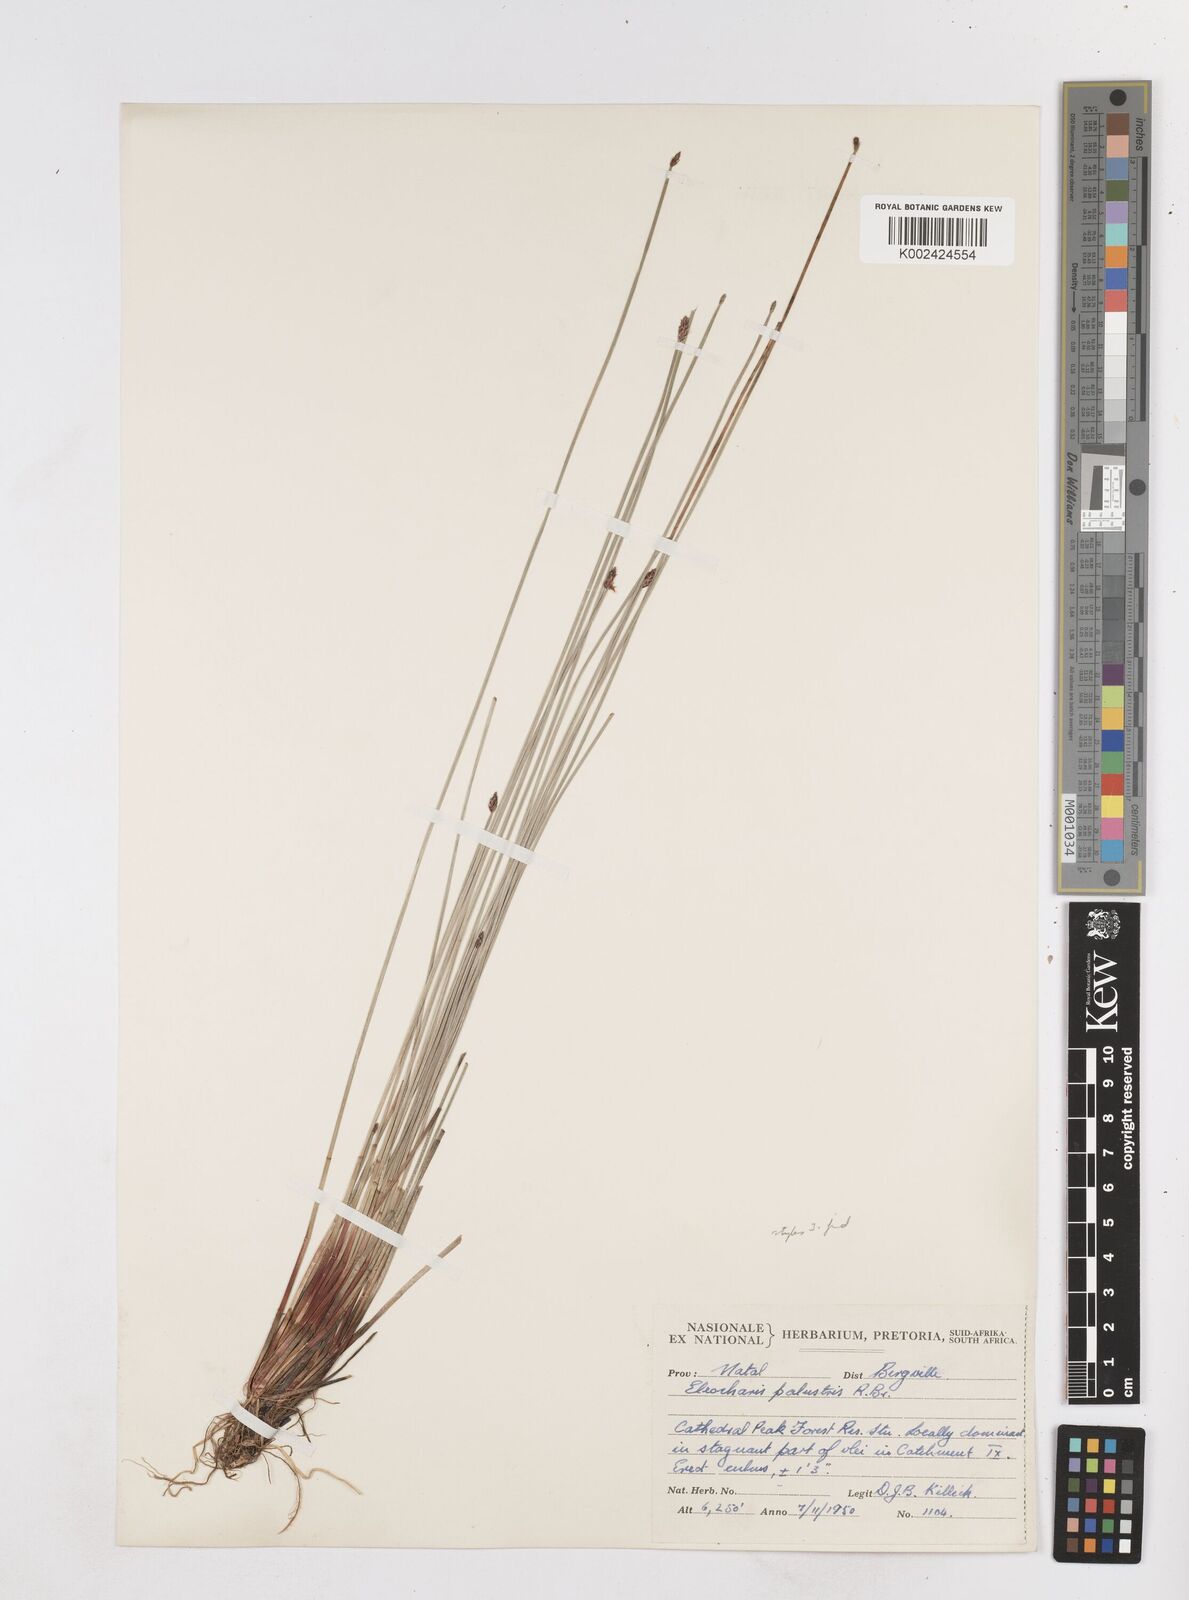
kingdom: Plantae
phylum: Tracheophyta
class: Liliopsida
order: Poales
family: Cyperaceae
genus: Eleocharis
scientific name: Eleocharis
